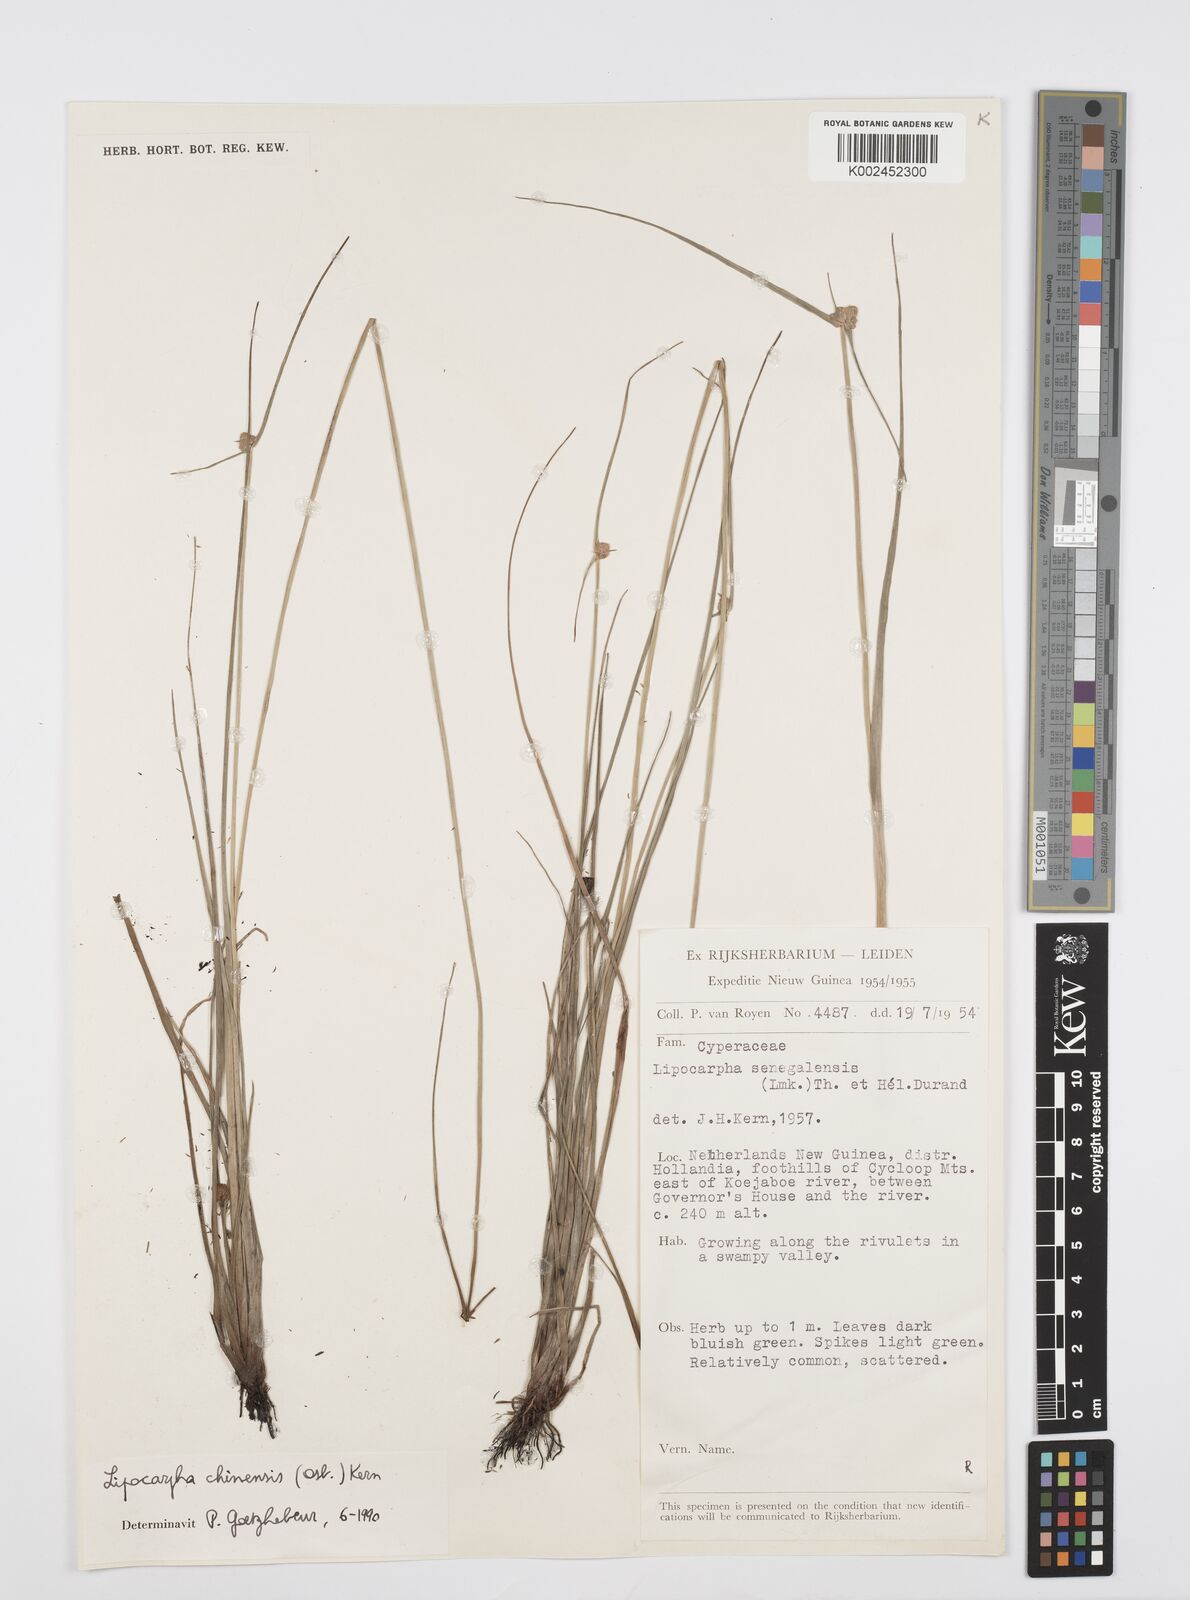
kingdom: Plantae
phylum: Tracheophyta
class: Liliopsida
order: Poales
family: Cyperaceae
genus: Cyperus
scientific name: Cyperus albescens
